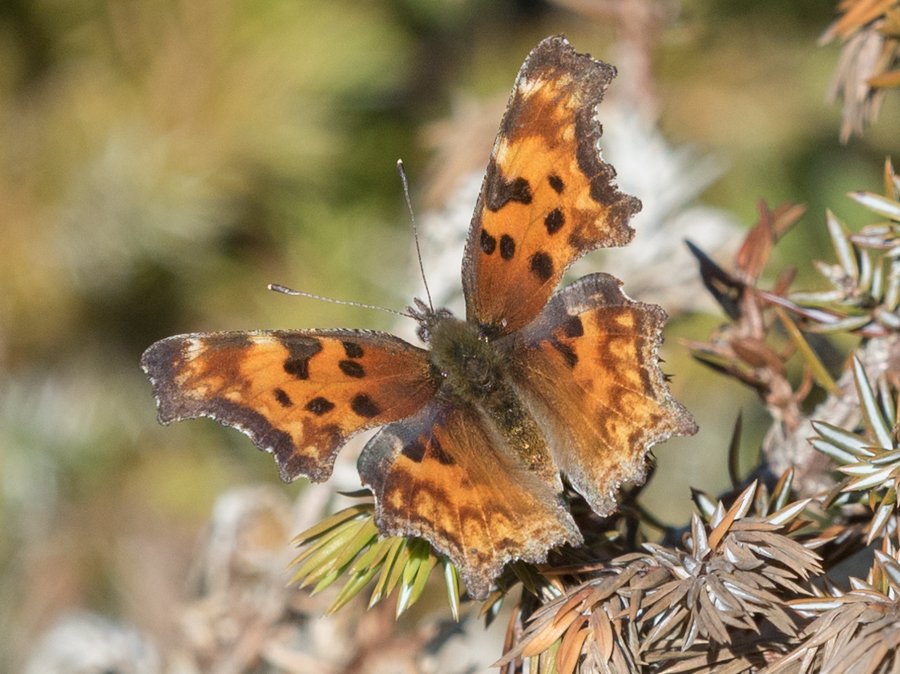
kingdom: Animalia
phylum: Arthropoda
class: Insecta
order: Lepidoptera
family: Nymphalidae
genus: Polygonia
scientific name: Polygonia gracilis
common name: Hoary Comma
